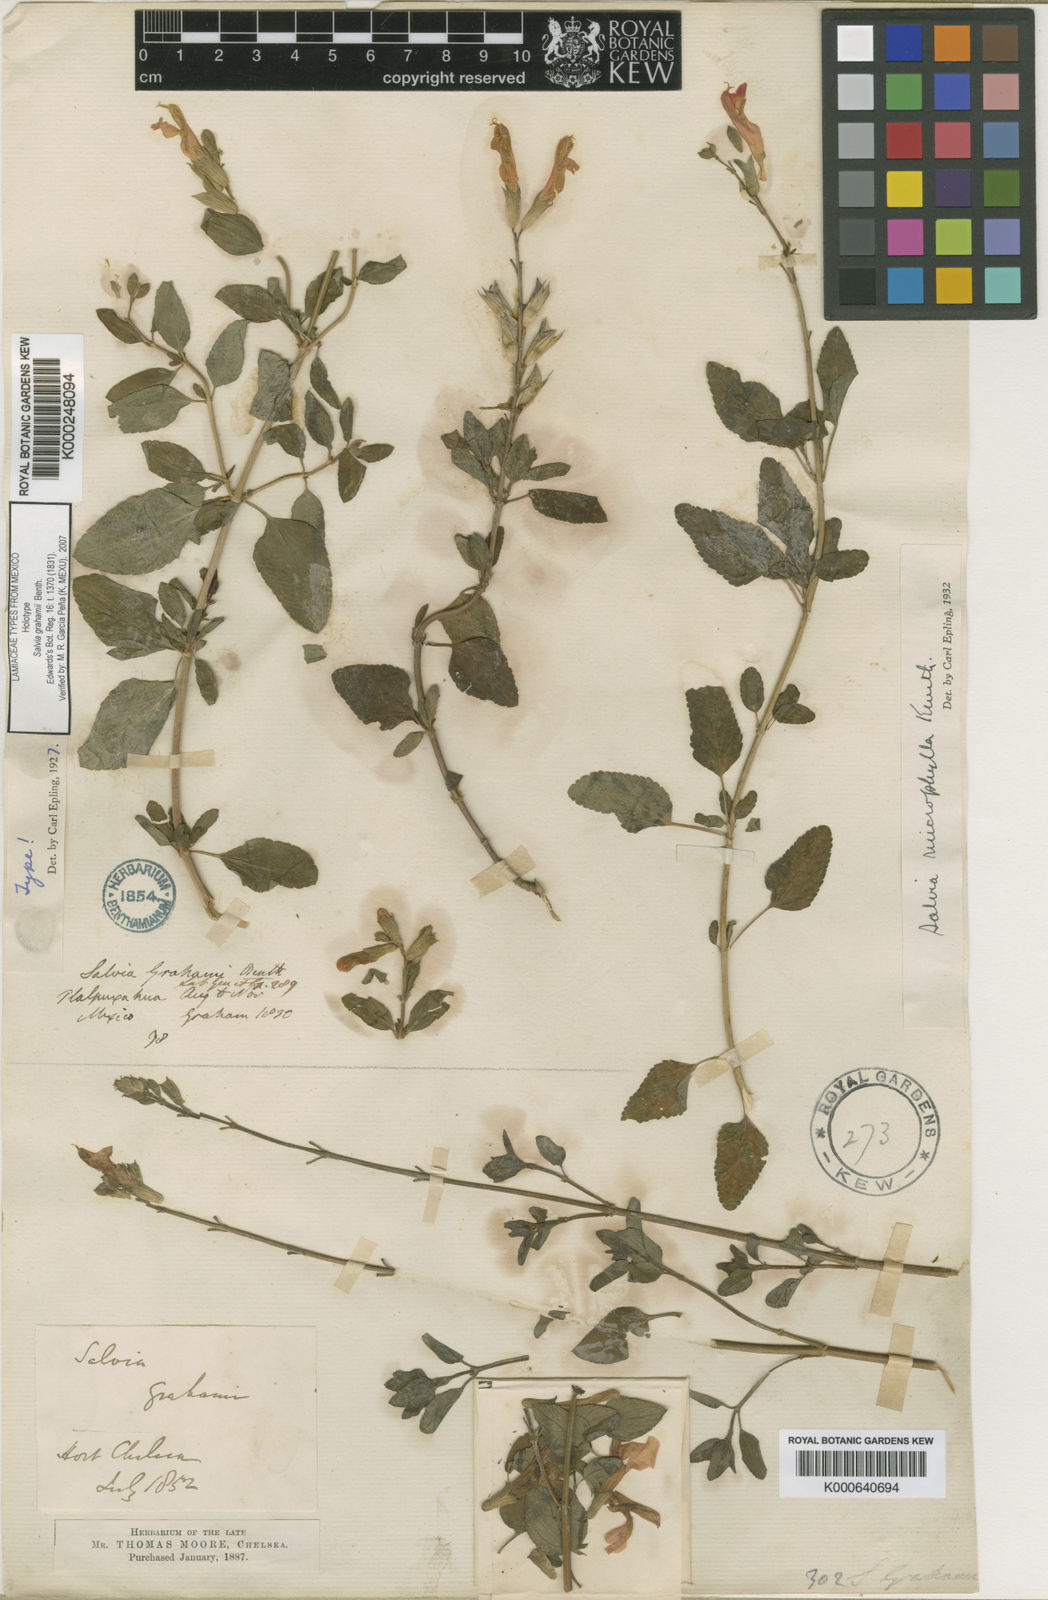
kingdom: Plantae
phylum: Tracheophyta
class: Magnoliopsida
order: Lamiales
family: Lamiaceae
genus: Salvia
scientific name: Salvia microphylla
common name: Baby sage
